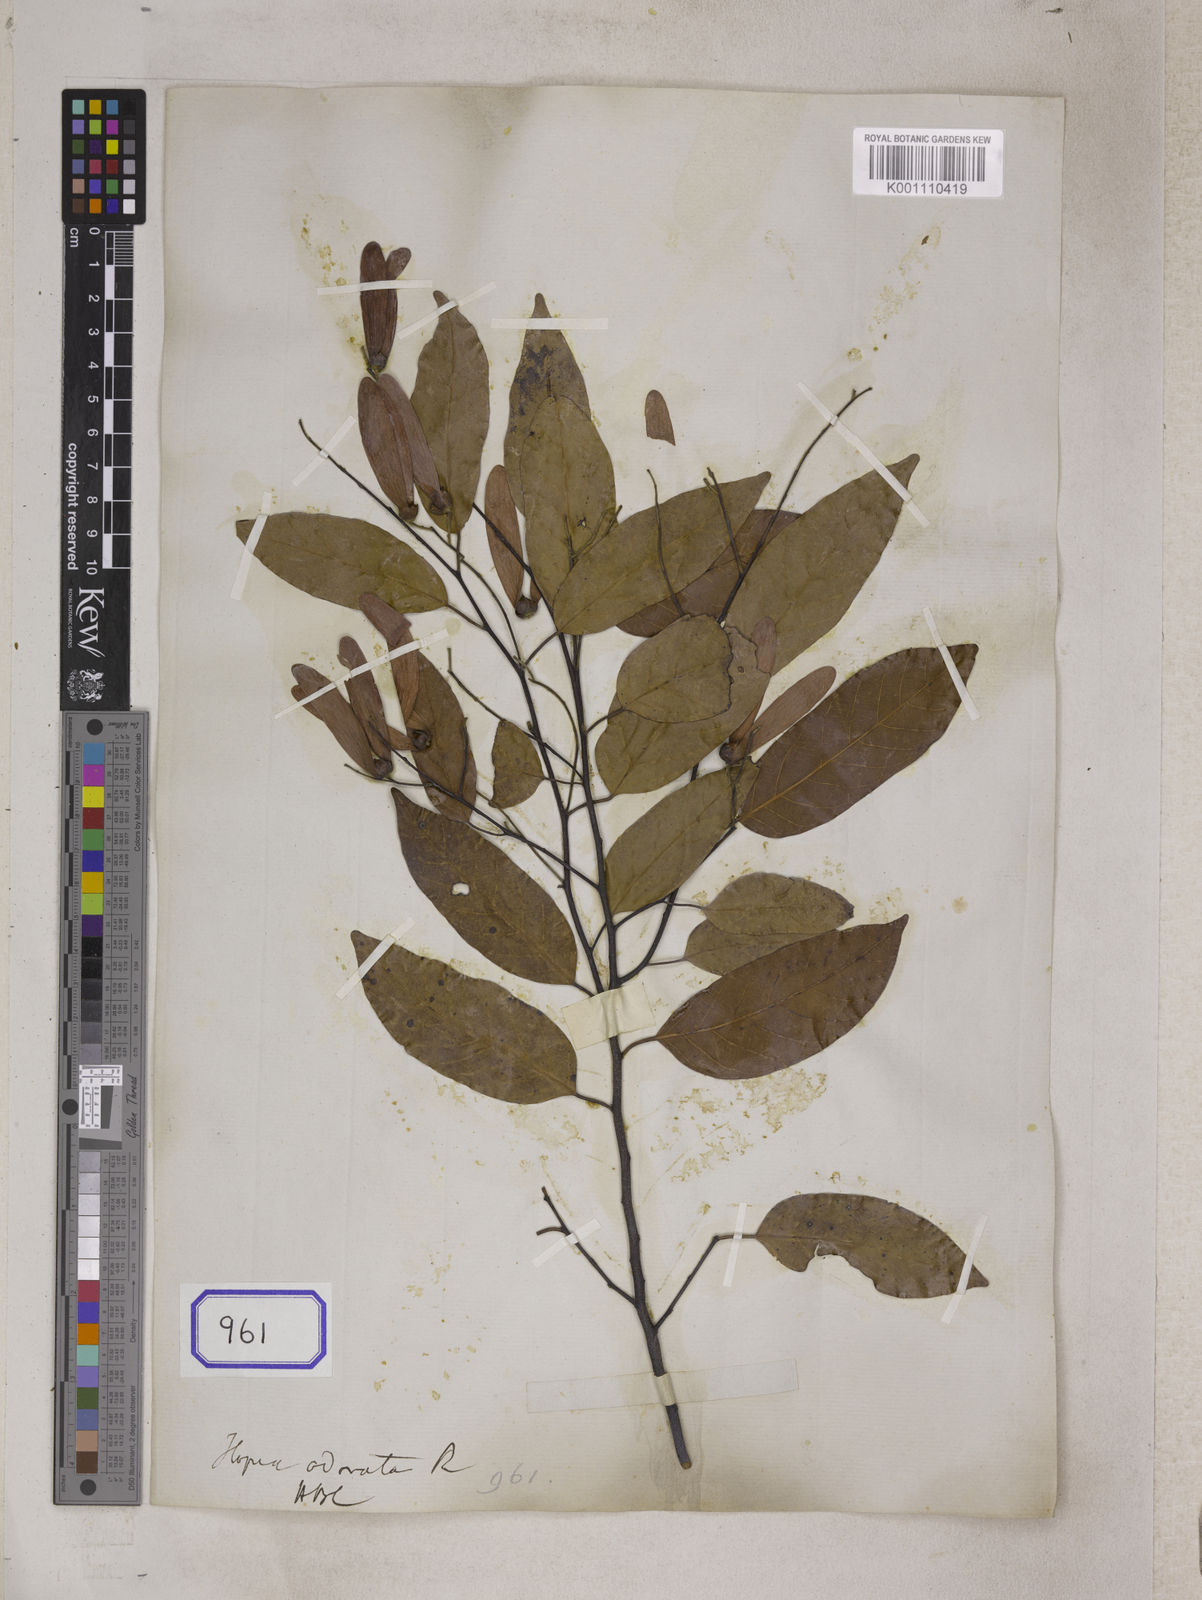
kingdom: Plantae
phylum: Tracheophyta
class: Magnoliopsida
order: Malvales
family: Dipterocarpaceae
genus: Hopea
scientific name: Hopea odorata
